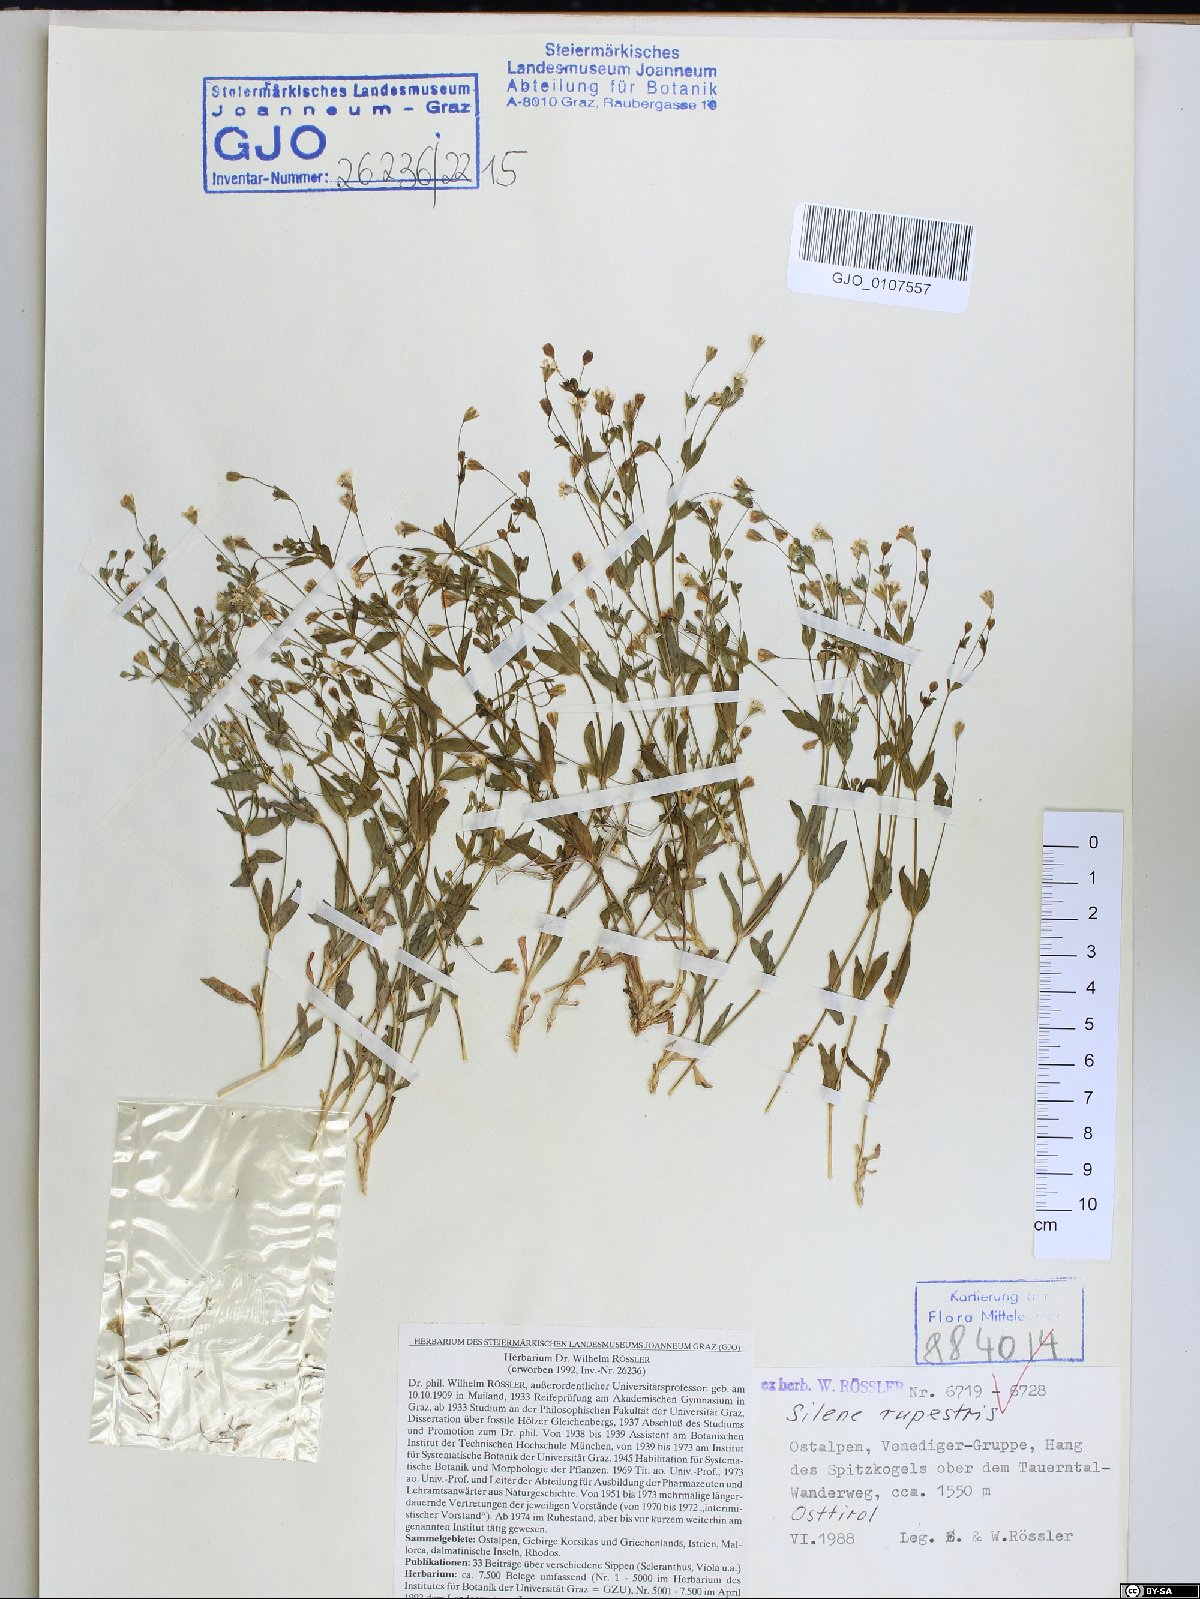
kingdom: Plantae
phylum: Tracheophyta
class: Magnoliopsida
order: Caryophyllales
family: Caryophyllaceae
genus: Atocion
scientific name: Atocion rupestre
